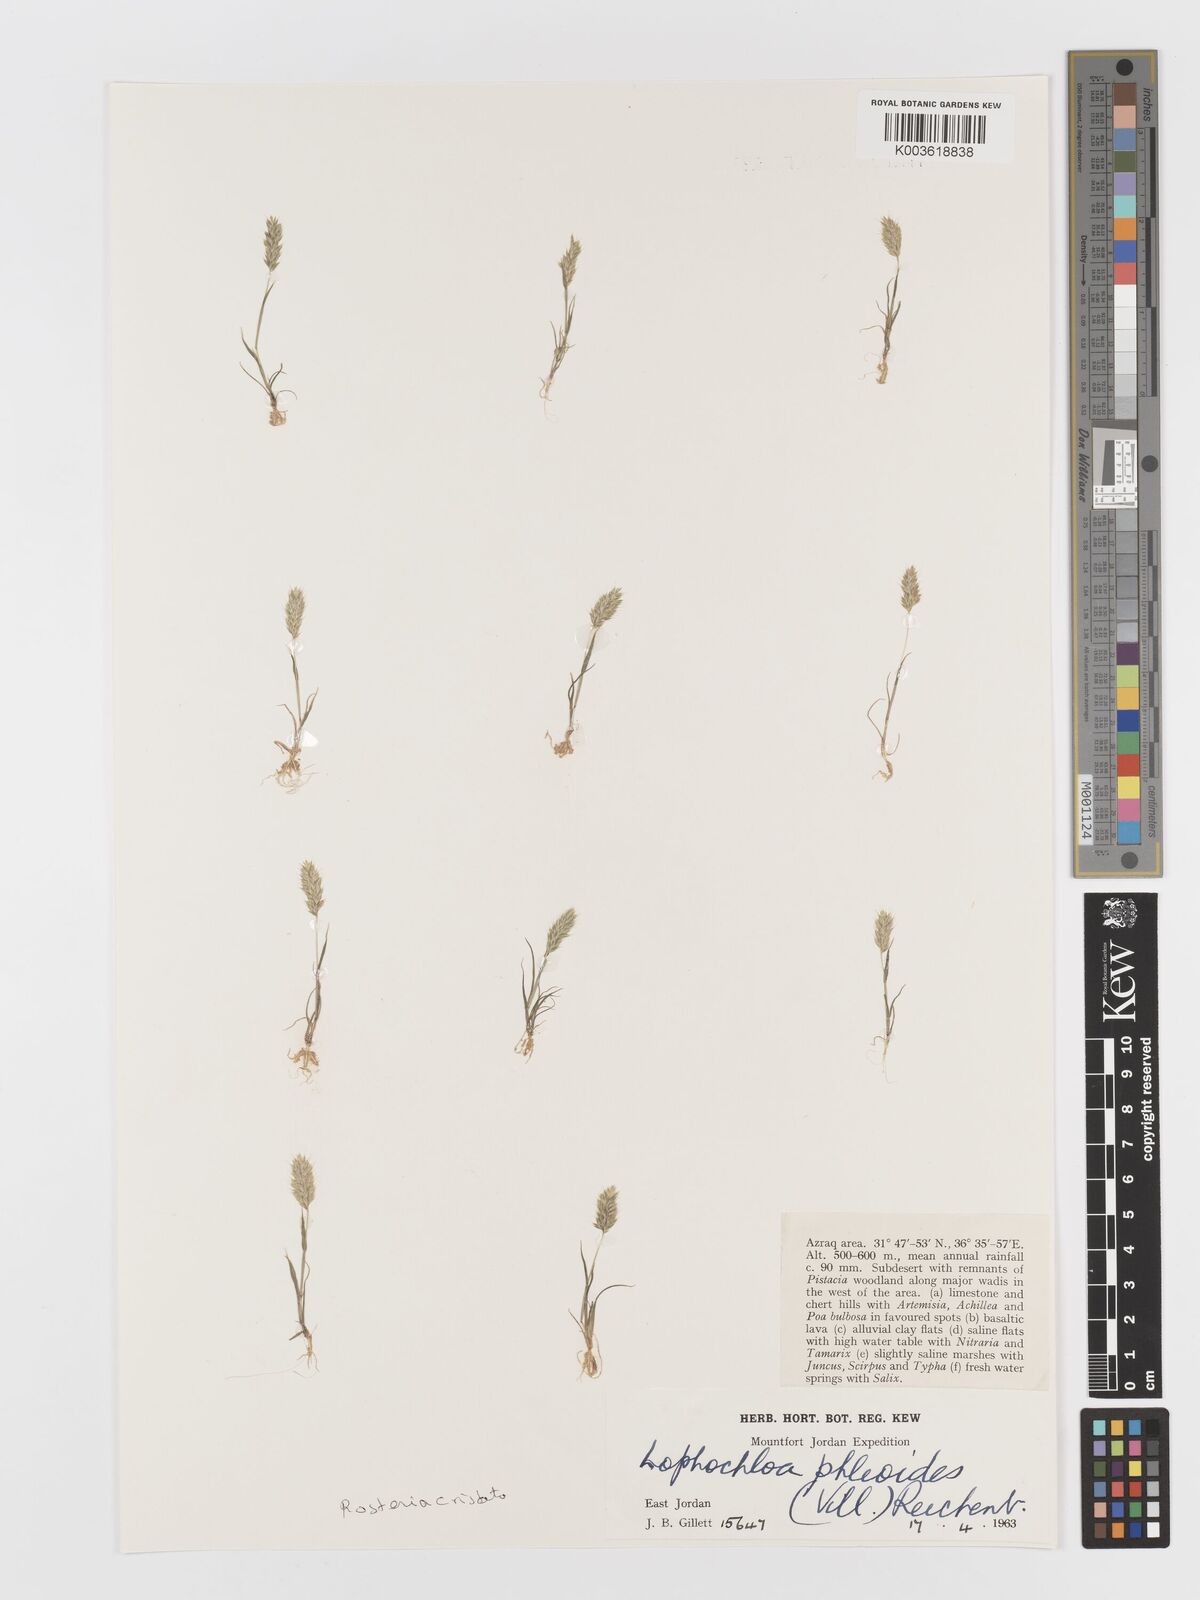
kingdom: Plantae
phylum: Tracheophyta
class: Liliopsida
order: Poales
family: Poaceae
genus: Rostraria
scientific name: Rostraria cristata
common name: Mediterranean hair-grass
